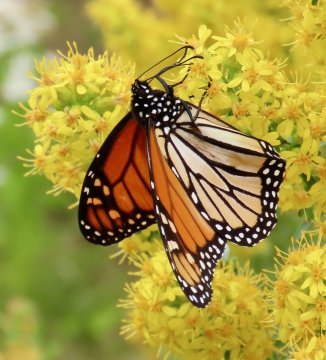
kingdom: Animalia
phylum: Arthropoda
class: Insecta
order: Lepidoptera
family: Nymphalidae
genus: Danaus
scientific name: Danaus plexippus
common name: Monarch
